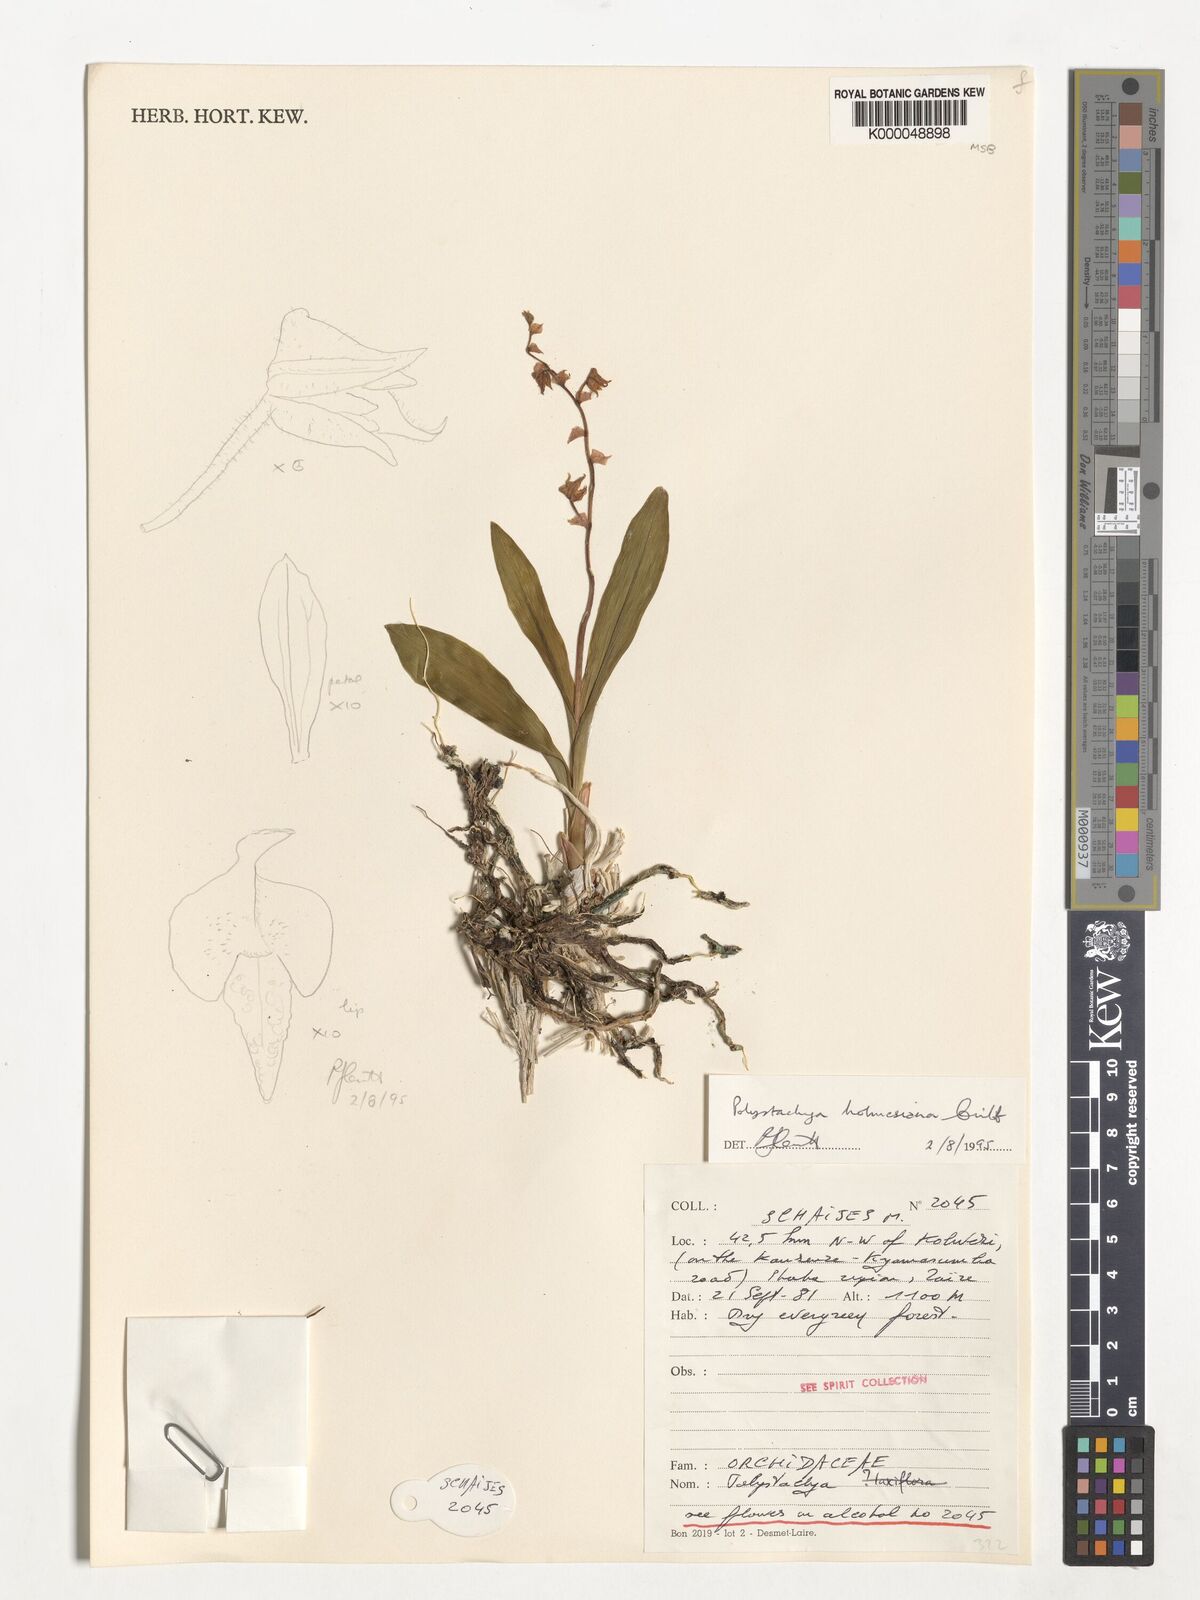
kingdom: Plantae
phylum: Tracheophyta
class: Liliopsida
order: Asparagales
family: Orchidaceae
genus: Polystachya
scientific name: Polystachya holmesiana
